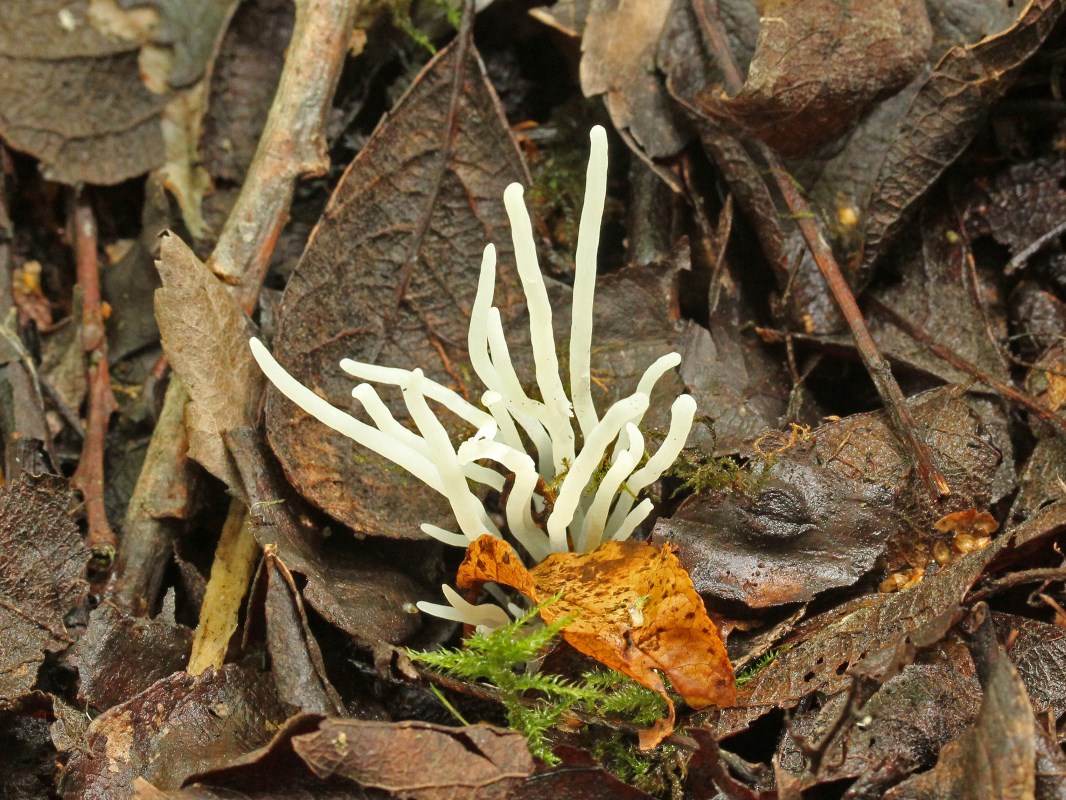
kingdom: Fungi
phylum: Basidiomycota
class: Agaricomycetes
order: Agaricales
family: Clavariaceae
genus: Clavaria
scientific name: Clavaria fragilis
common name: bugtet køllesvamp
